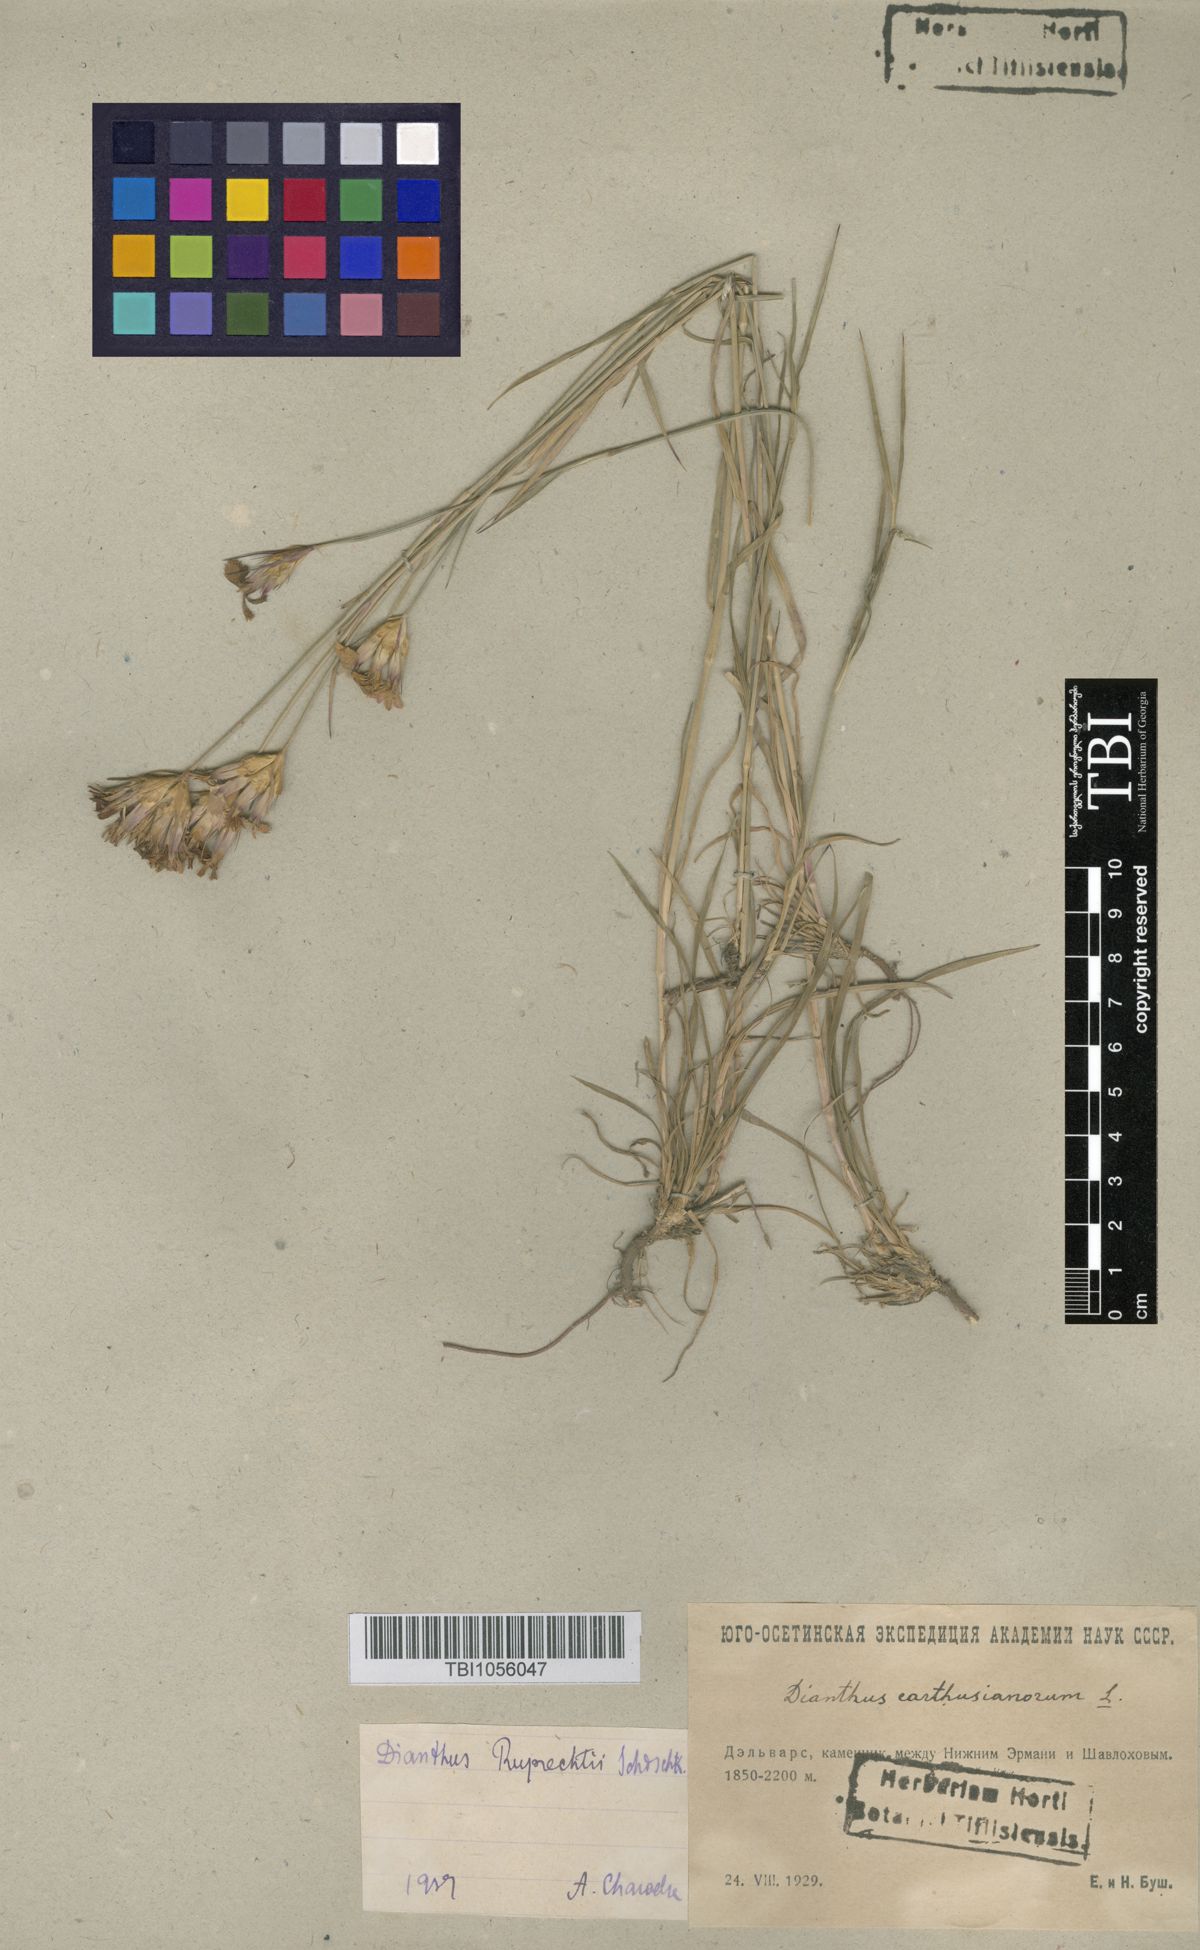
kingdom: Plantae
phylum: Tracheophyta
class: Magnoliopsida
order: Caryophyllales
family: Caryophyllaceae
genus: Dianthus
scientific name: Dianthus ruprechtii
